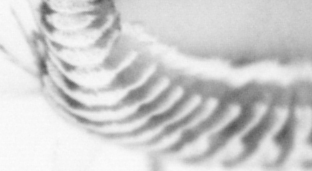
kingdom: Animalia
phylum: Annelida
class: Polychaeta
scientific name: Polychaeta
